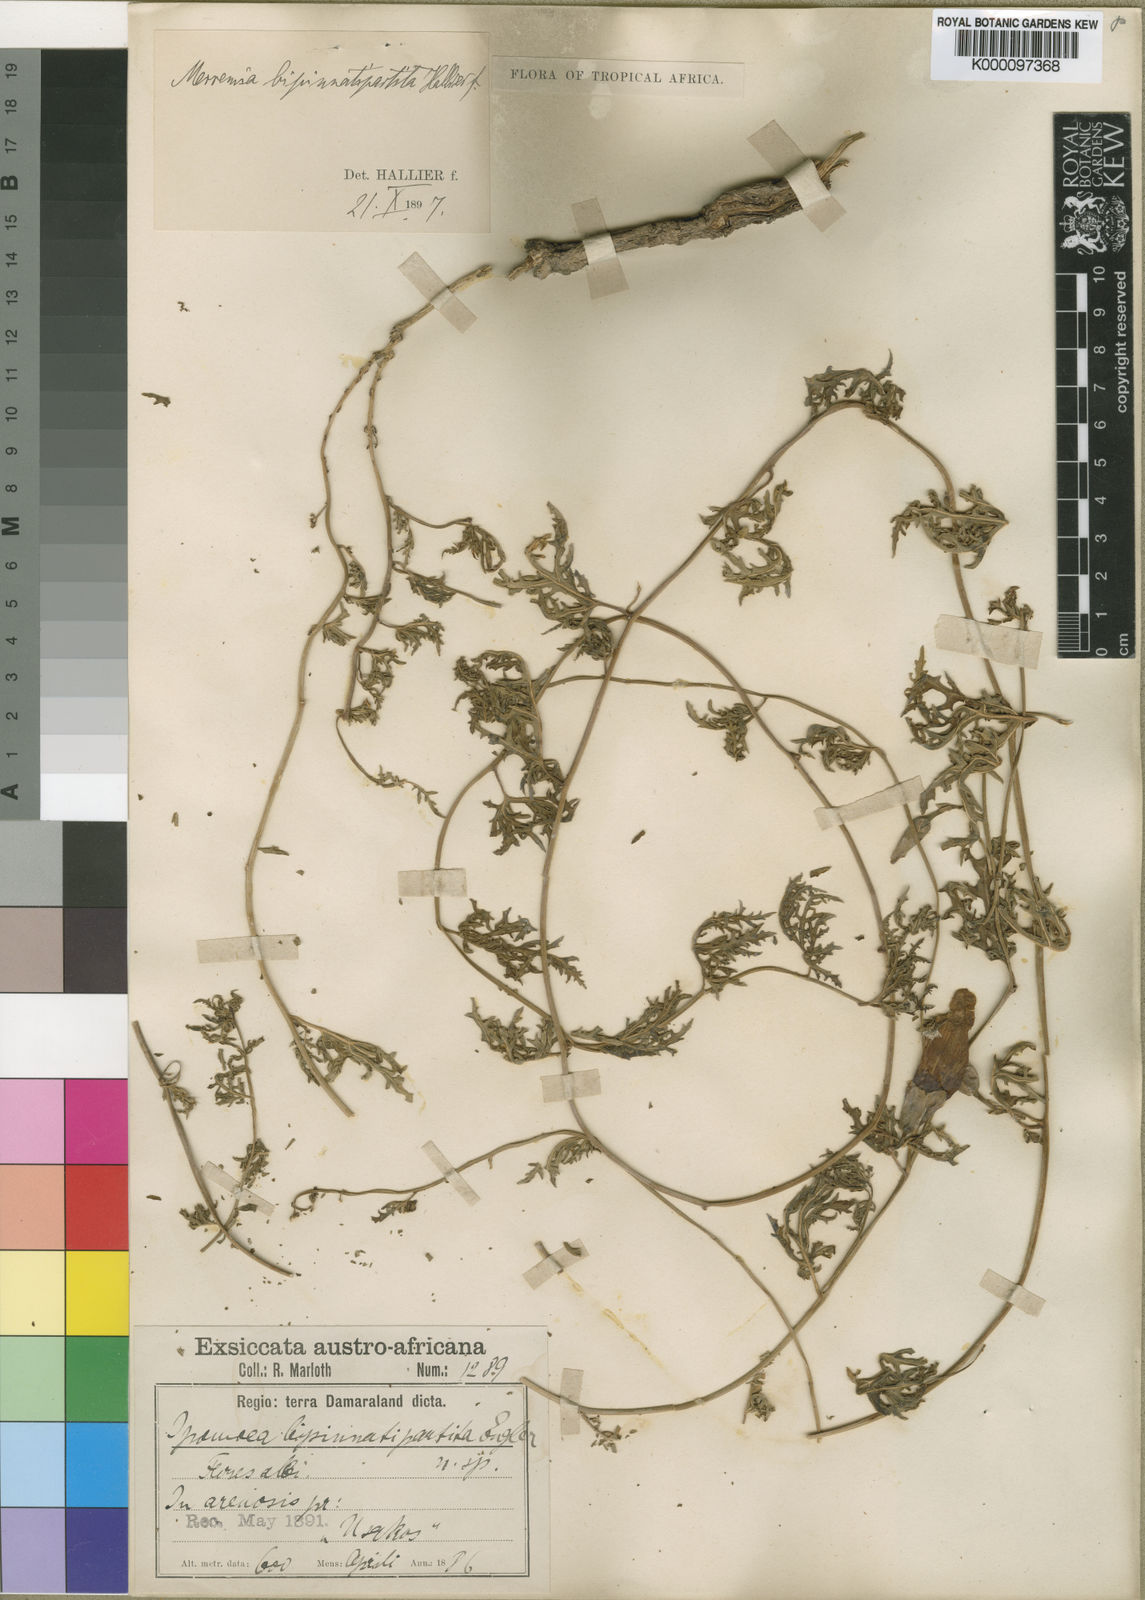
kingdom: Plantae
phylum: Tracheophyta
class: Magnoliopsida
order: Solanales
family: Convolvulaceae
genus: Distimake
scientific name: Distimake
